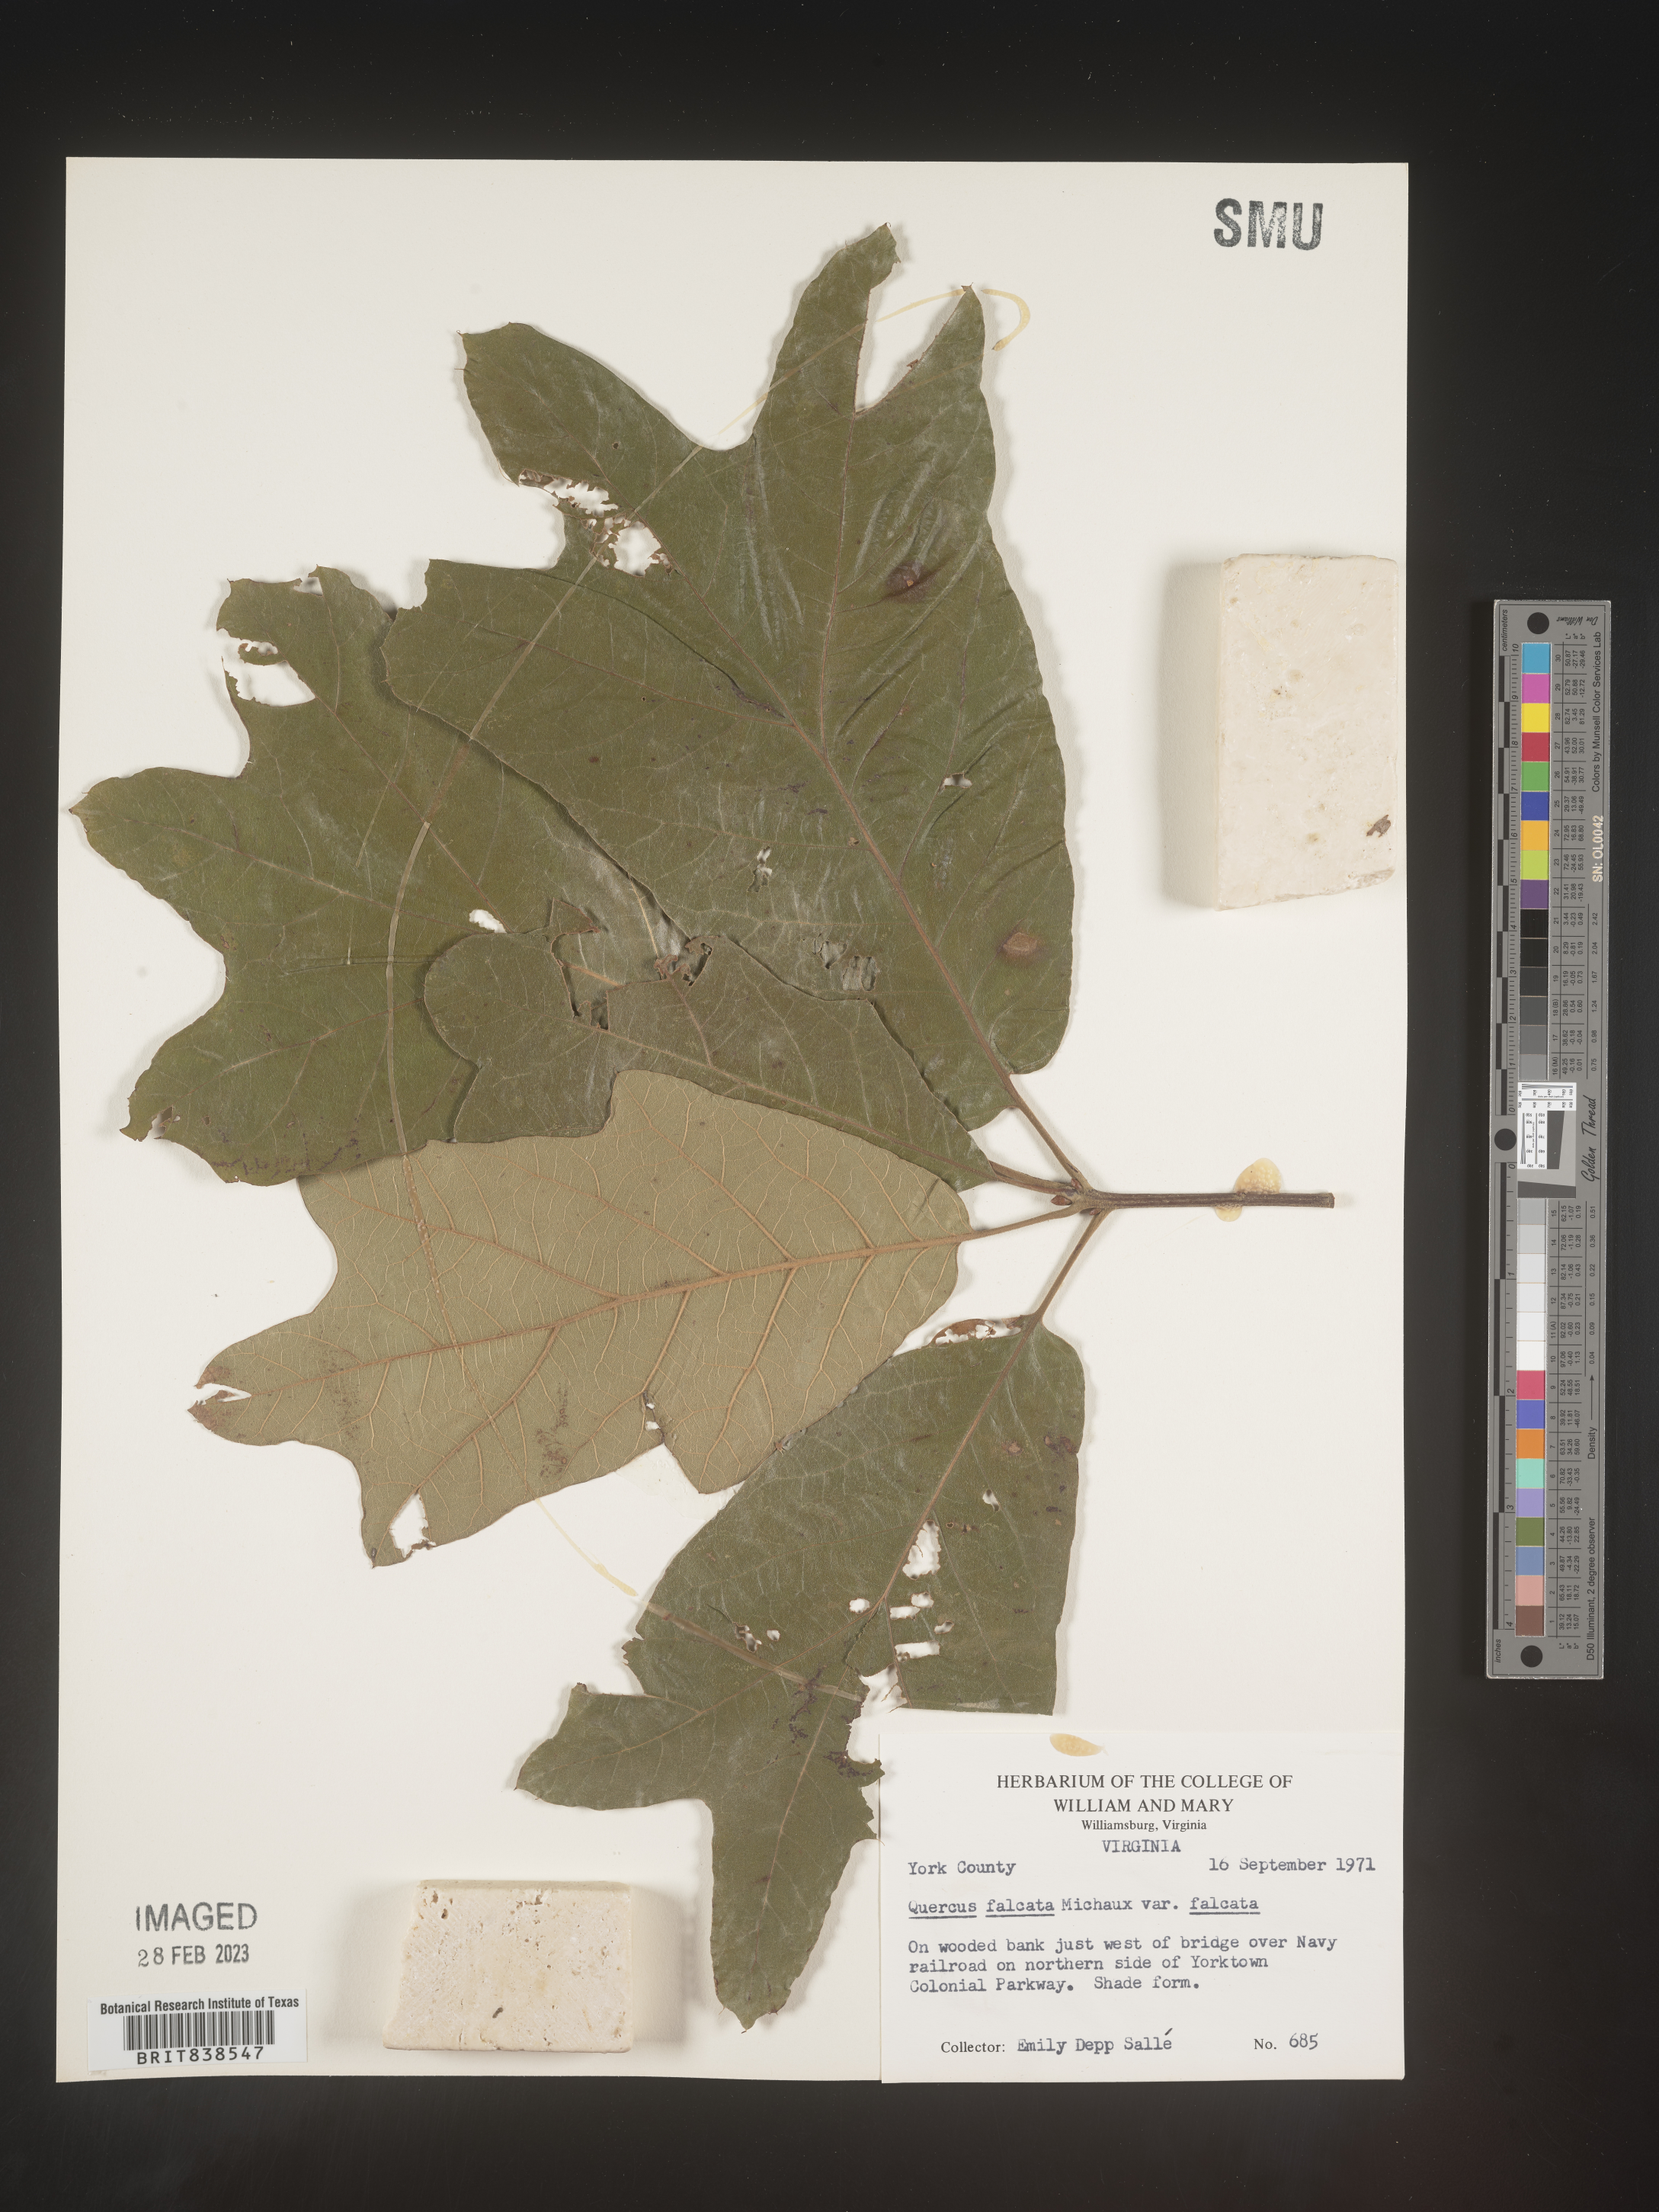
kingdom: Plantae
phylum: Tracheophyta
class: Magnoliopsida
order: Fagales
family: Fagaceae
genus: Quercus
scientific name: Quercus falcata
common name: Southern red oak
